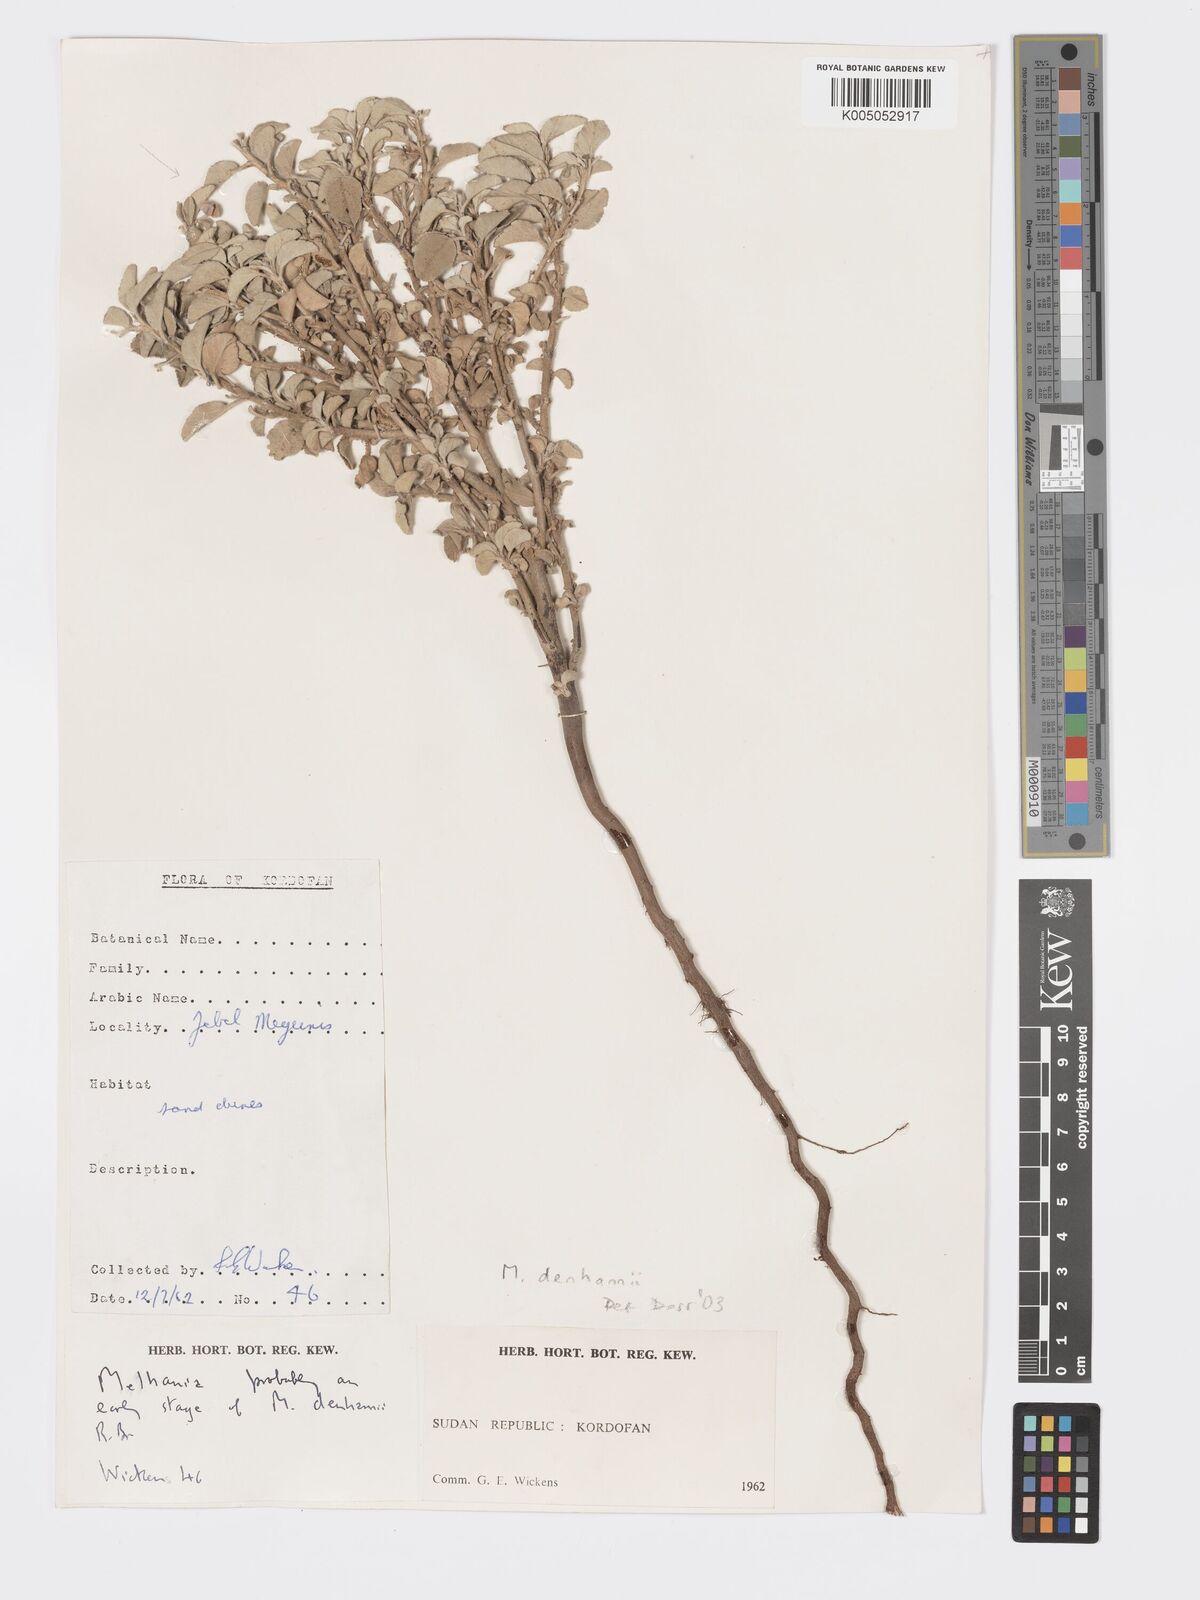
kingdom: Plantae
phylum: Tracheophyta
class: Magnoliopsida
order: Malvales
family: Malvaceae
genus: Melhania
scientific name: Melhania denhamii
